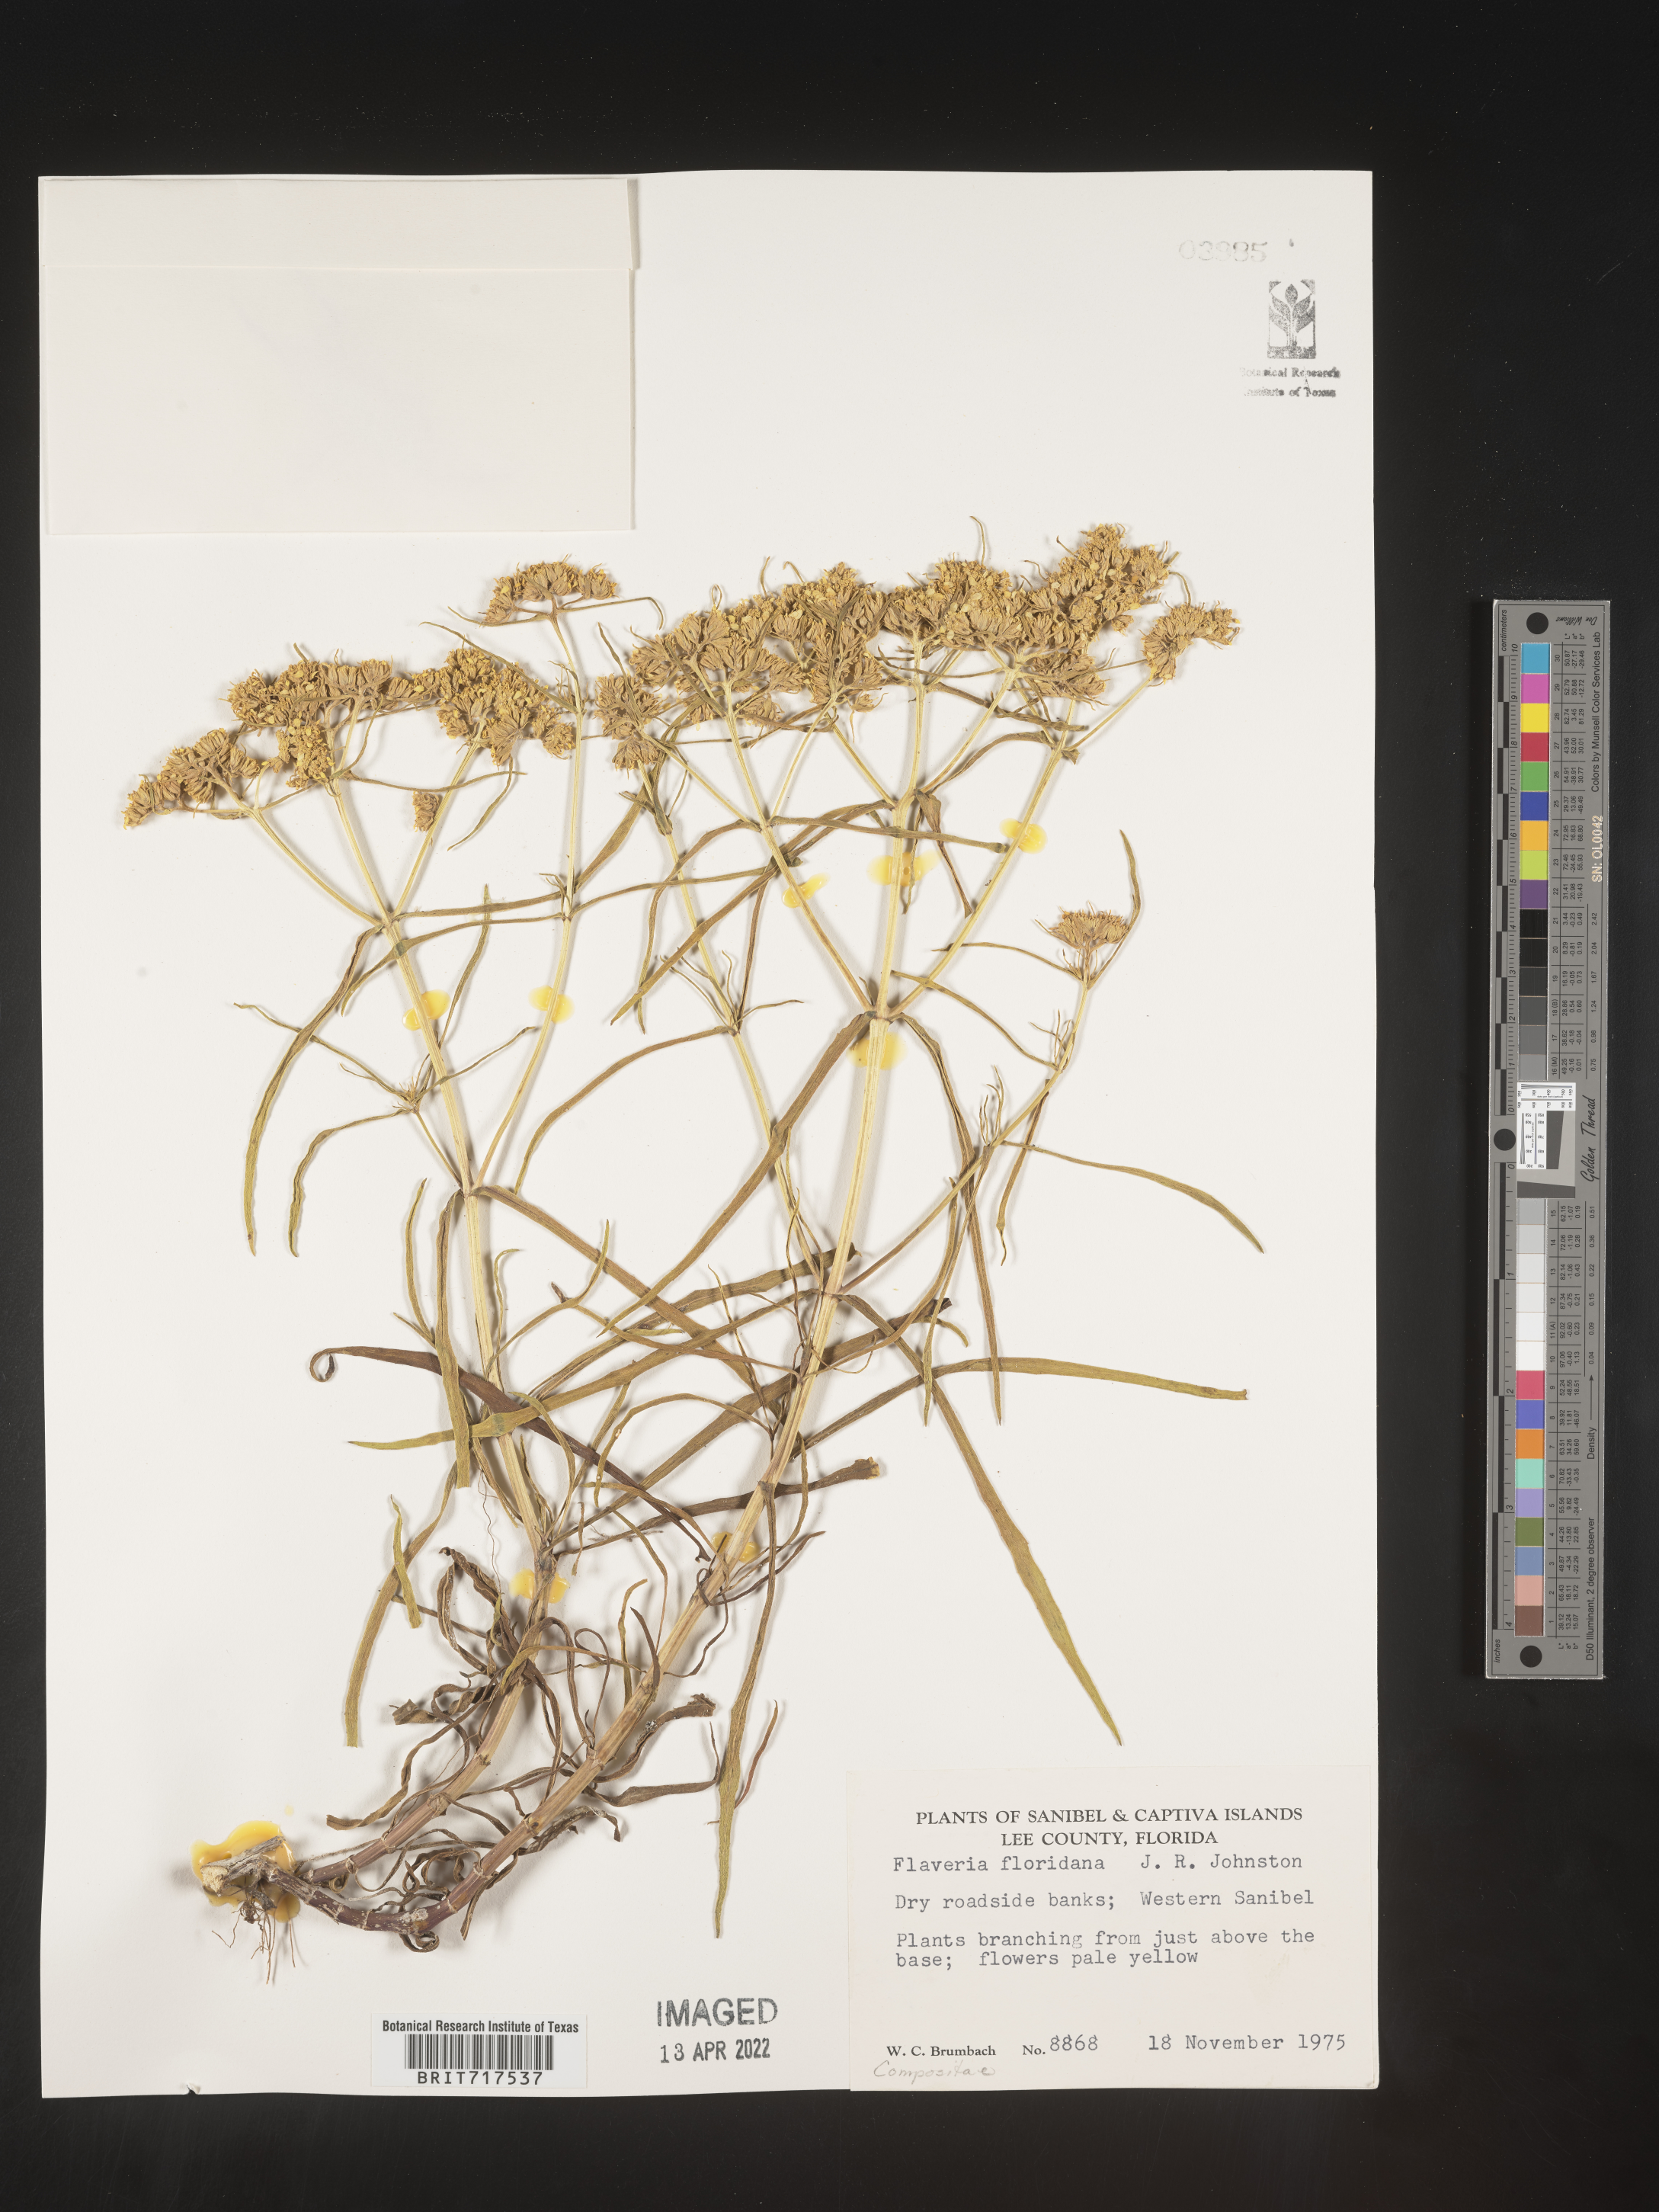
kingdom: Plantae
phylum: Tracheophyta
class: Magnoliopsida
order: Asterales
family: Asteraceae
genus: Flaveria
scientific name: Flaveria linearis
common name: Yellowtop
